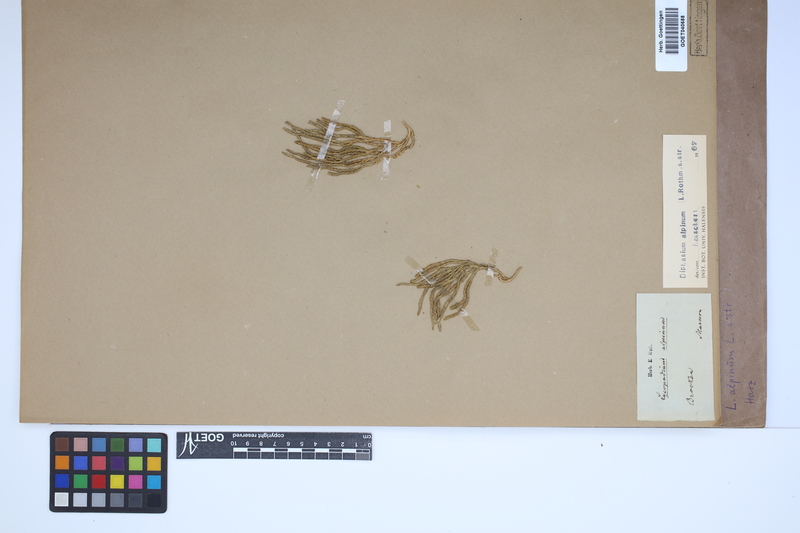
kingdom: Plantae
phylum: Tracheophyta
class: Lycopodiopsida
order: Lycopodiales
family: Lycopodiaceae
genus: Diphasiastrum
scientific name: Diphasiastrum alpinum
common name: Alpine clubmoss
